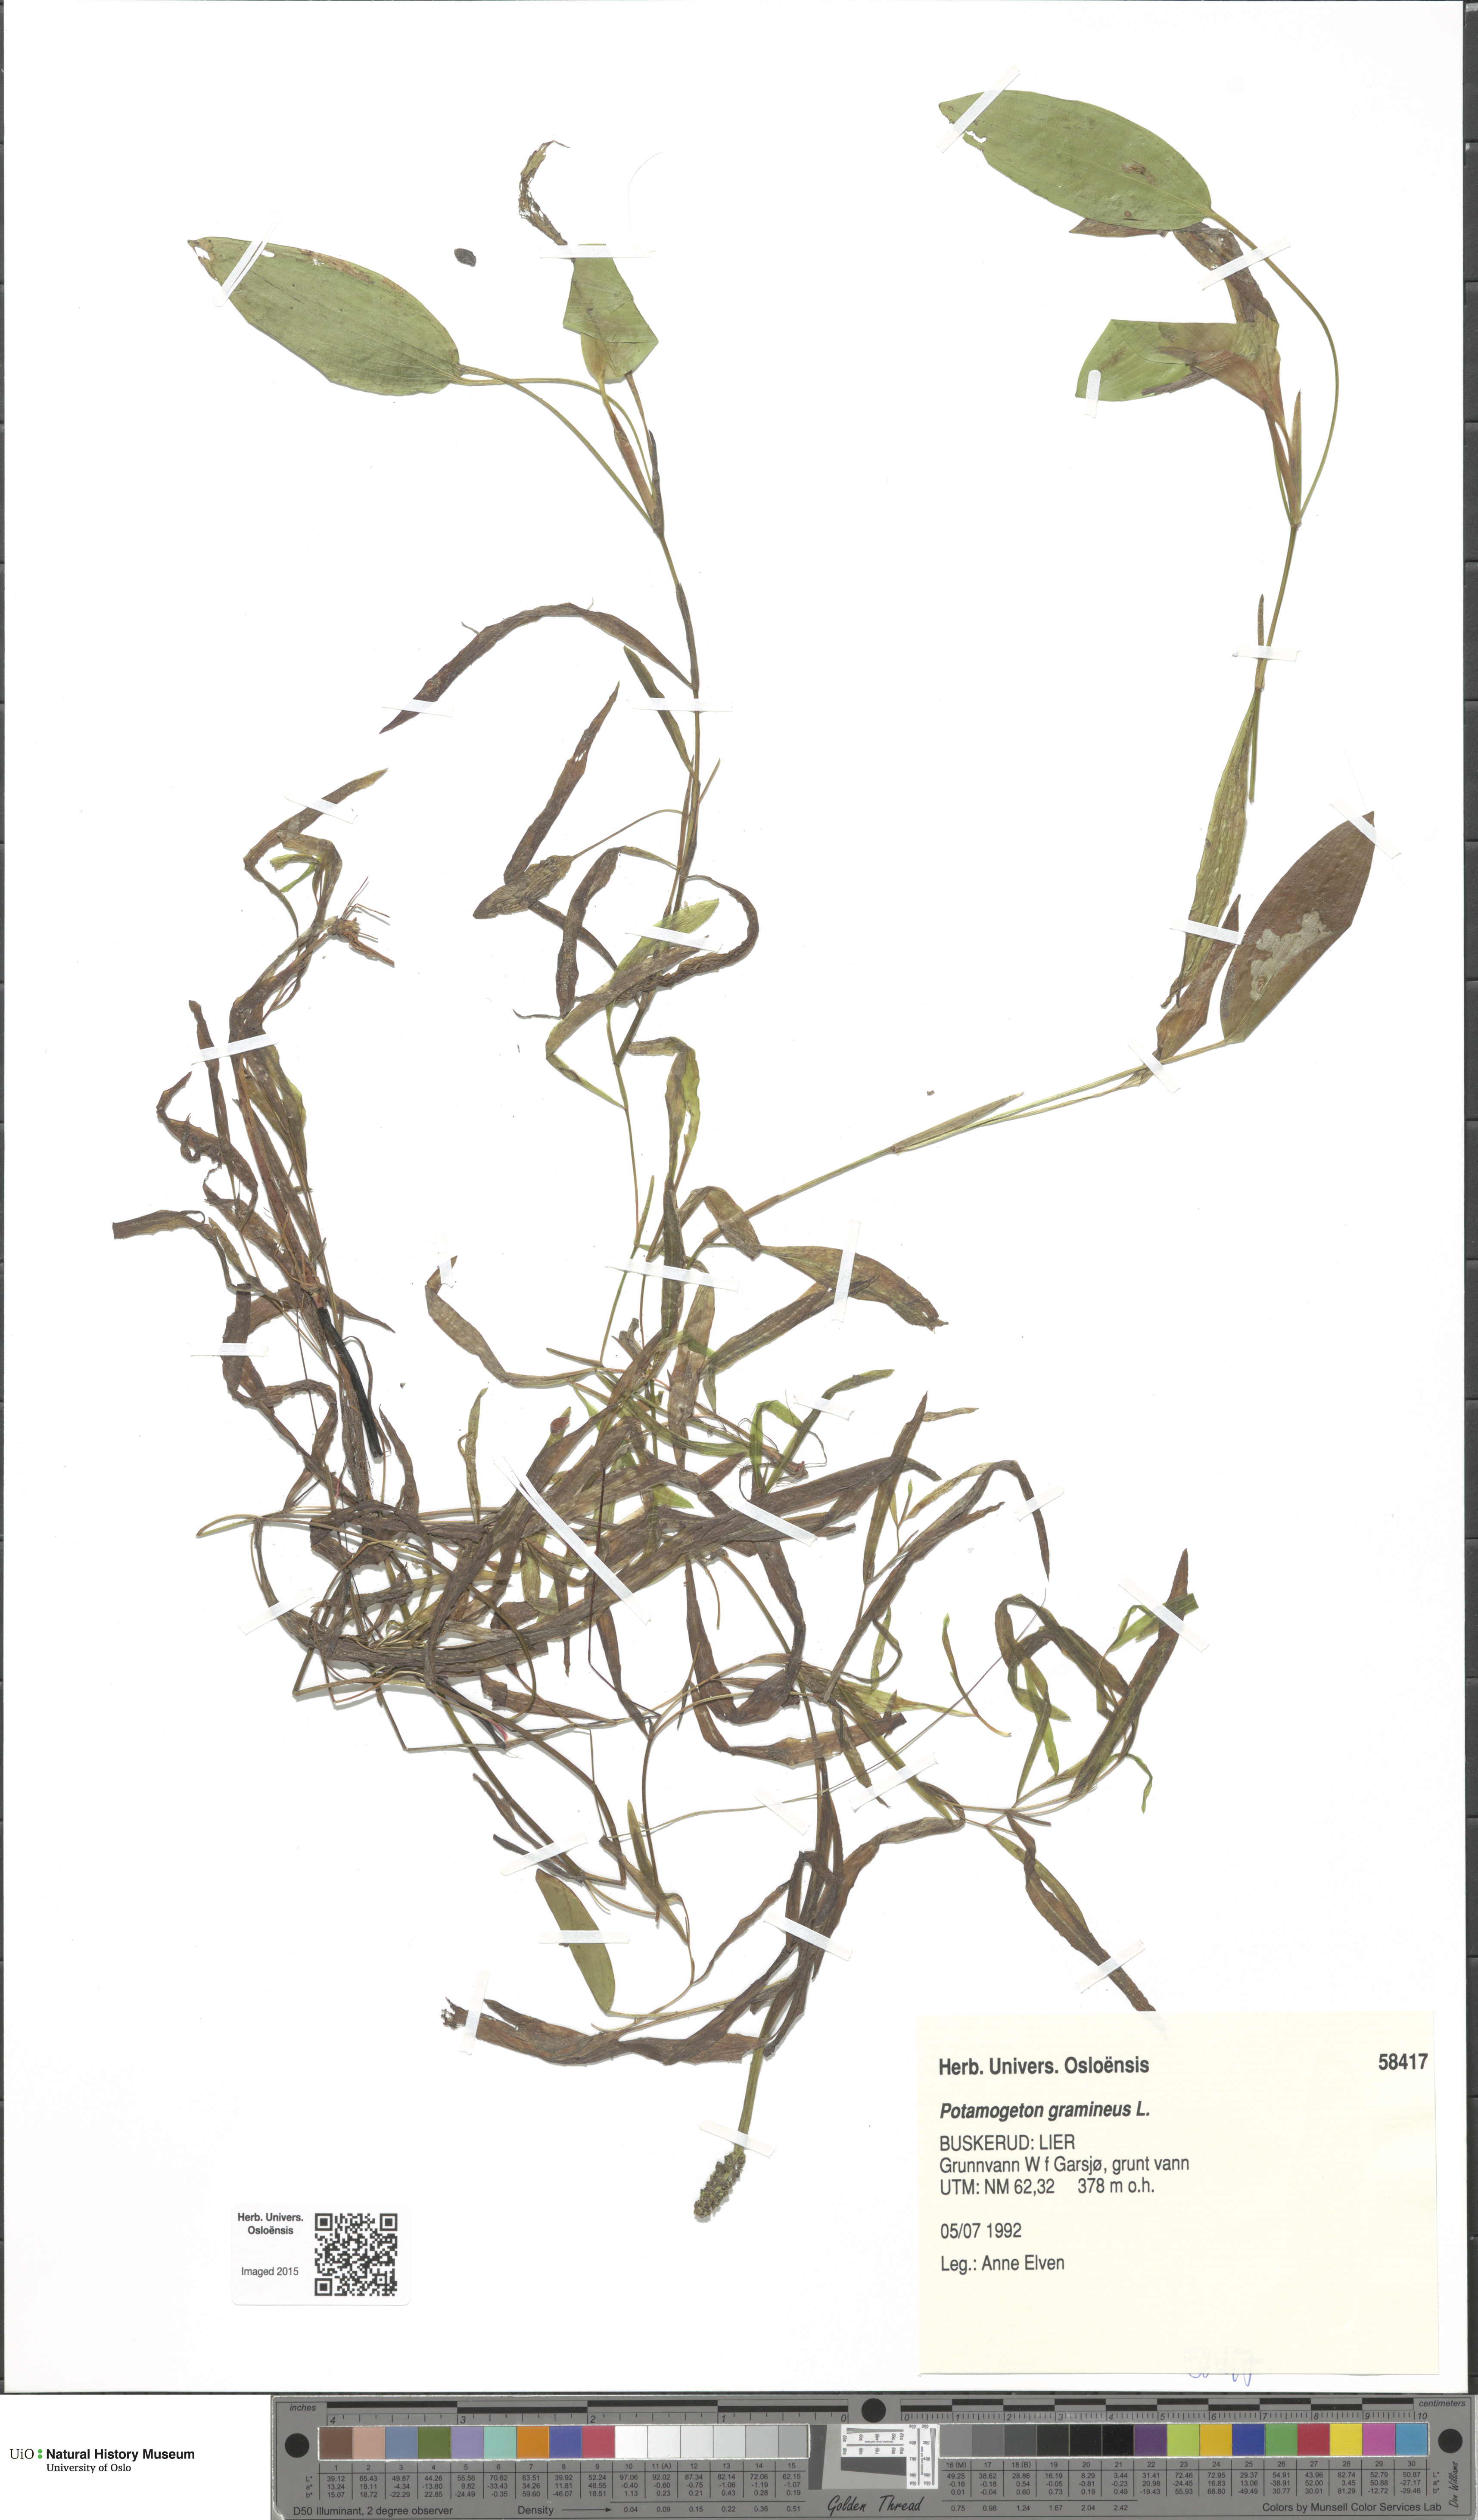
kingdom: Plantae
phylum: Tracheophyta
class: Liliopsida
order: Alismatales
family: Potamogetonaceae
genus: Potamogeton
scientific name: Potamogeton gramineus
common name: Various-leaved pondweed
